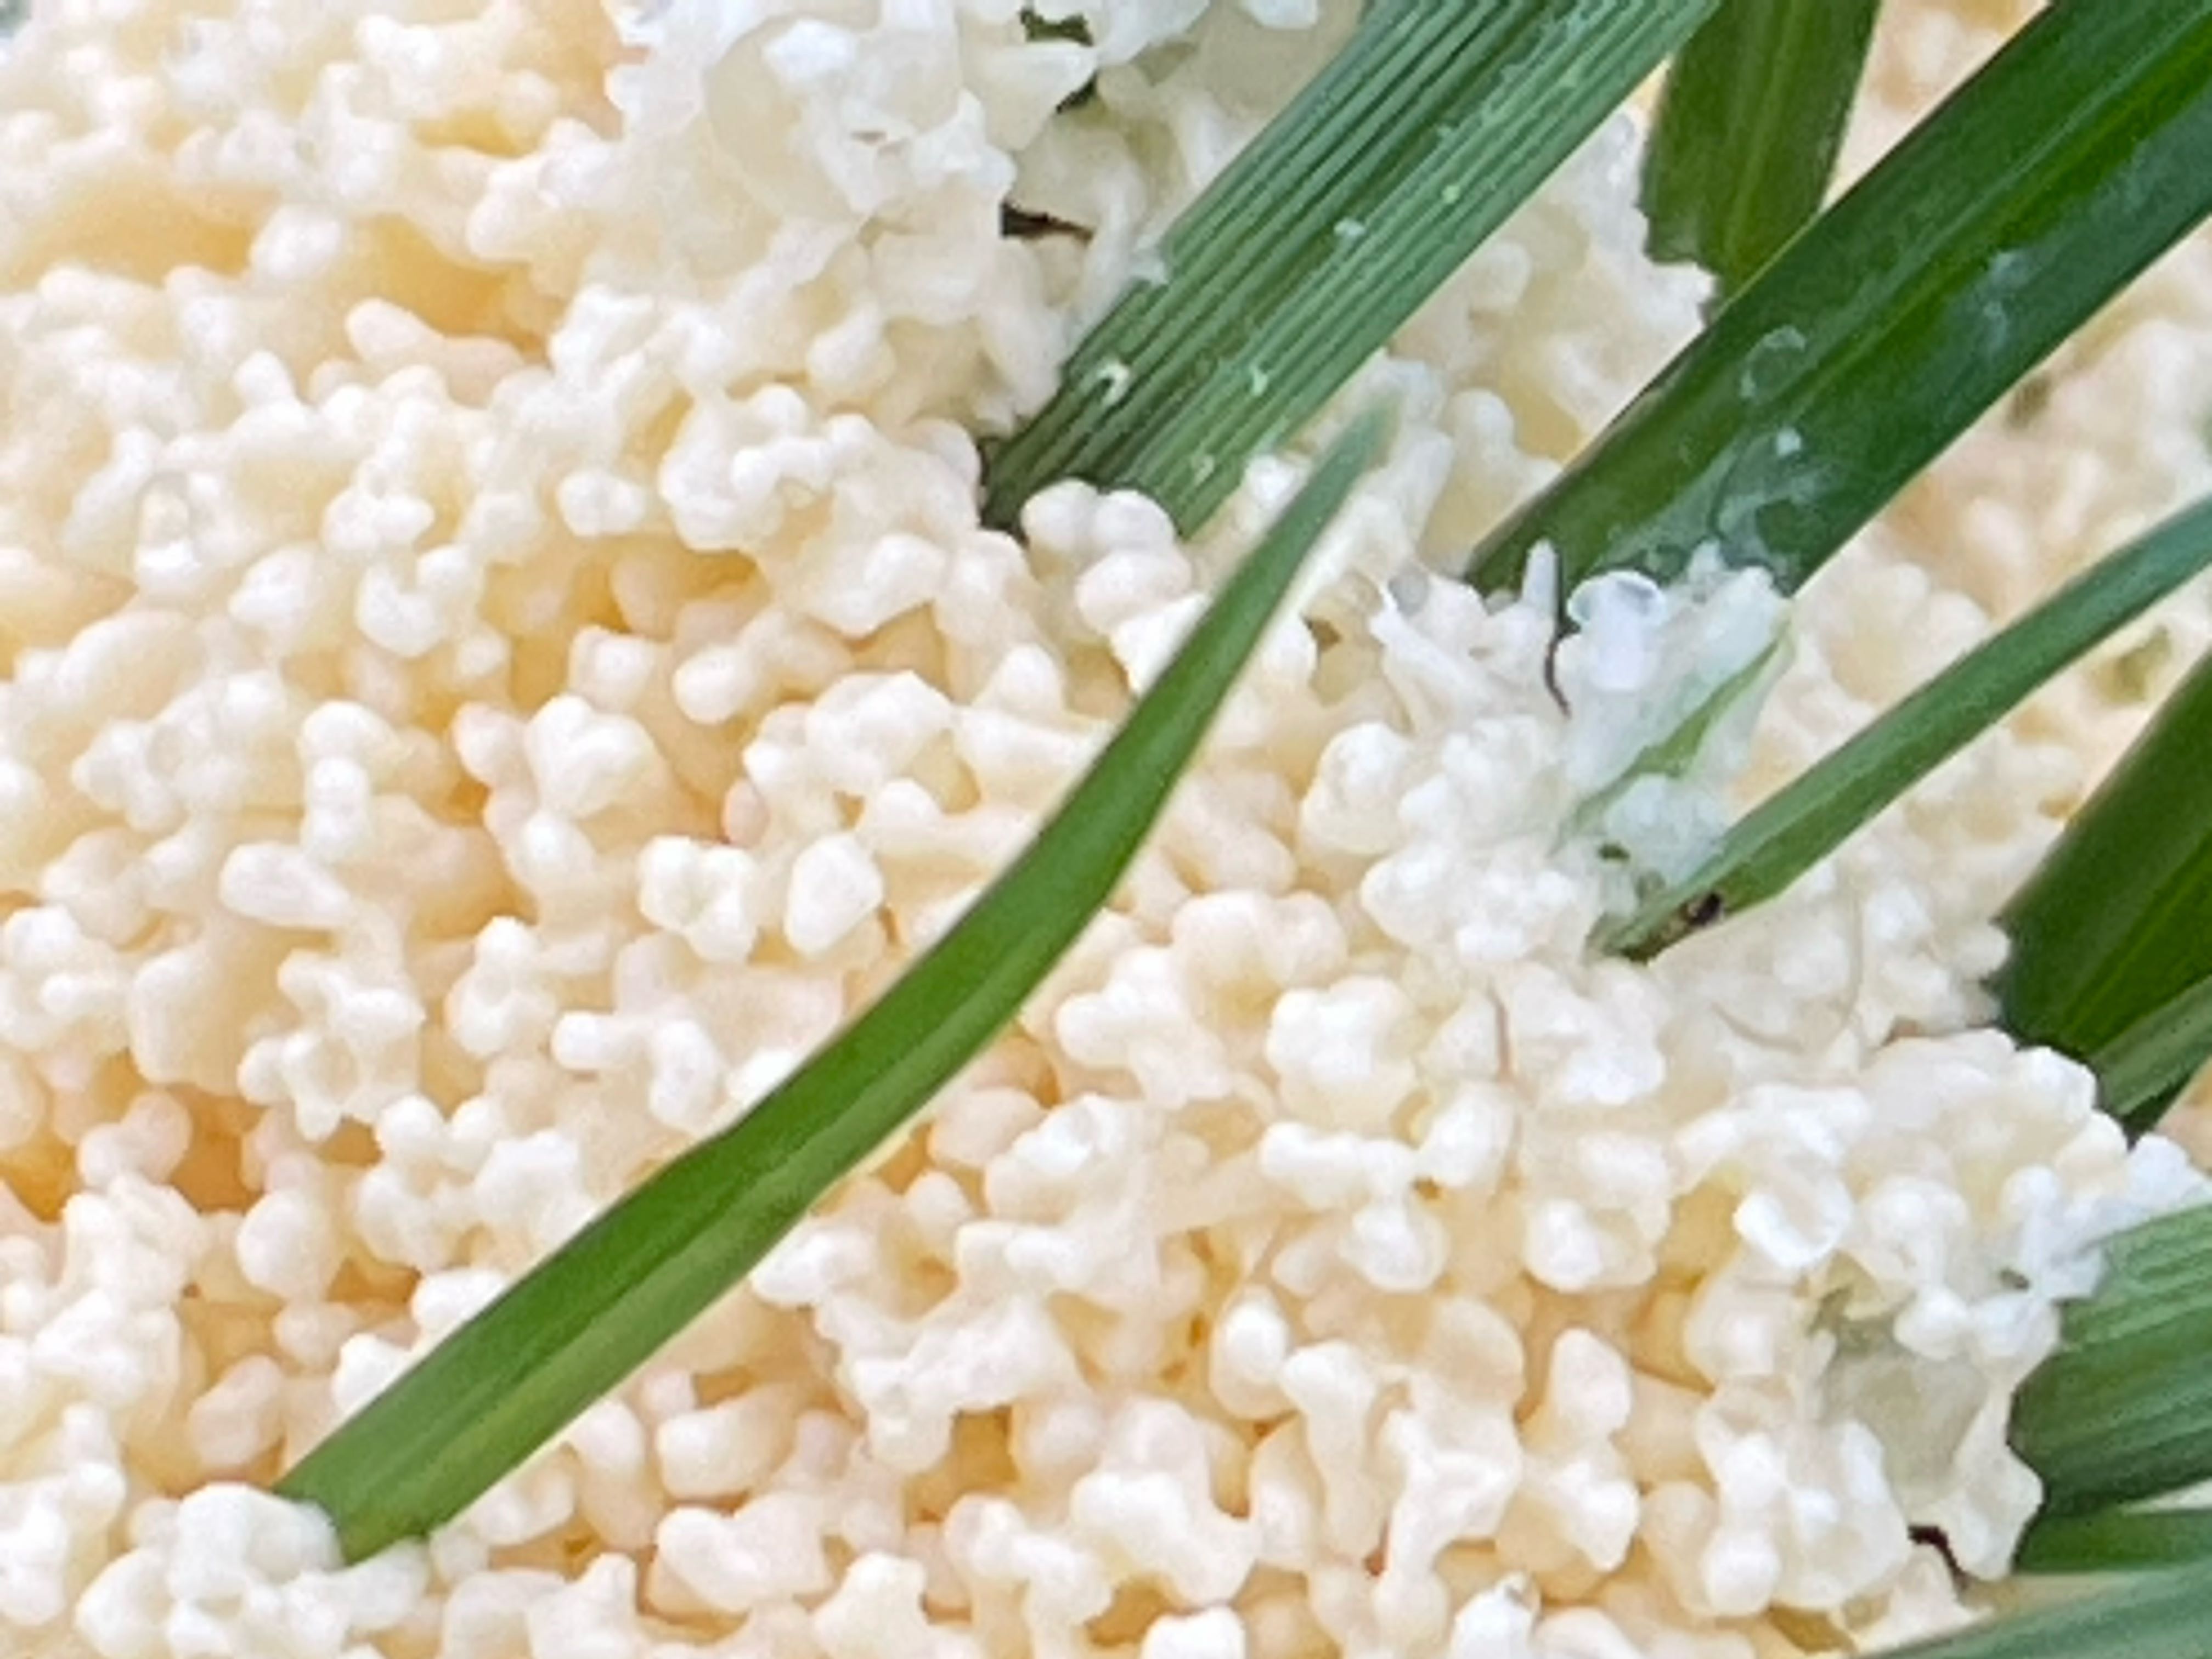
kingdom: Protozoa
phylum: Mycetozoa
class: Myxomycetes
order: Physarales
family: Physaraceae
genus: Didymium
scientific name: Didymium
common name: urteskum
